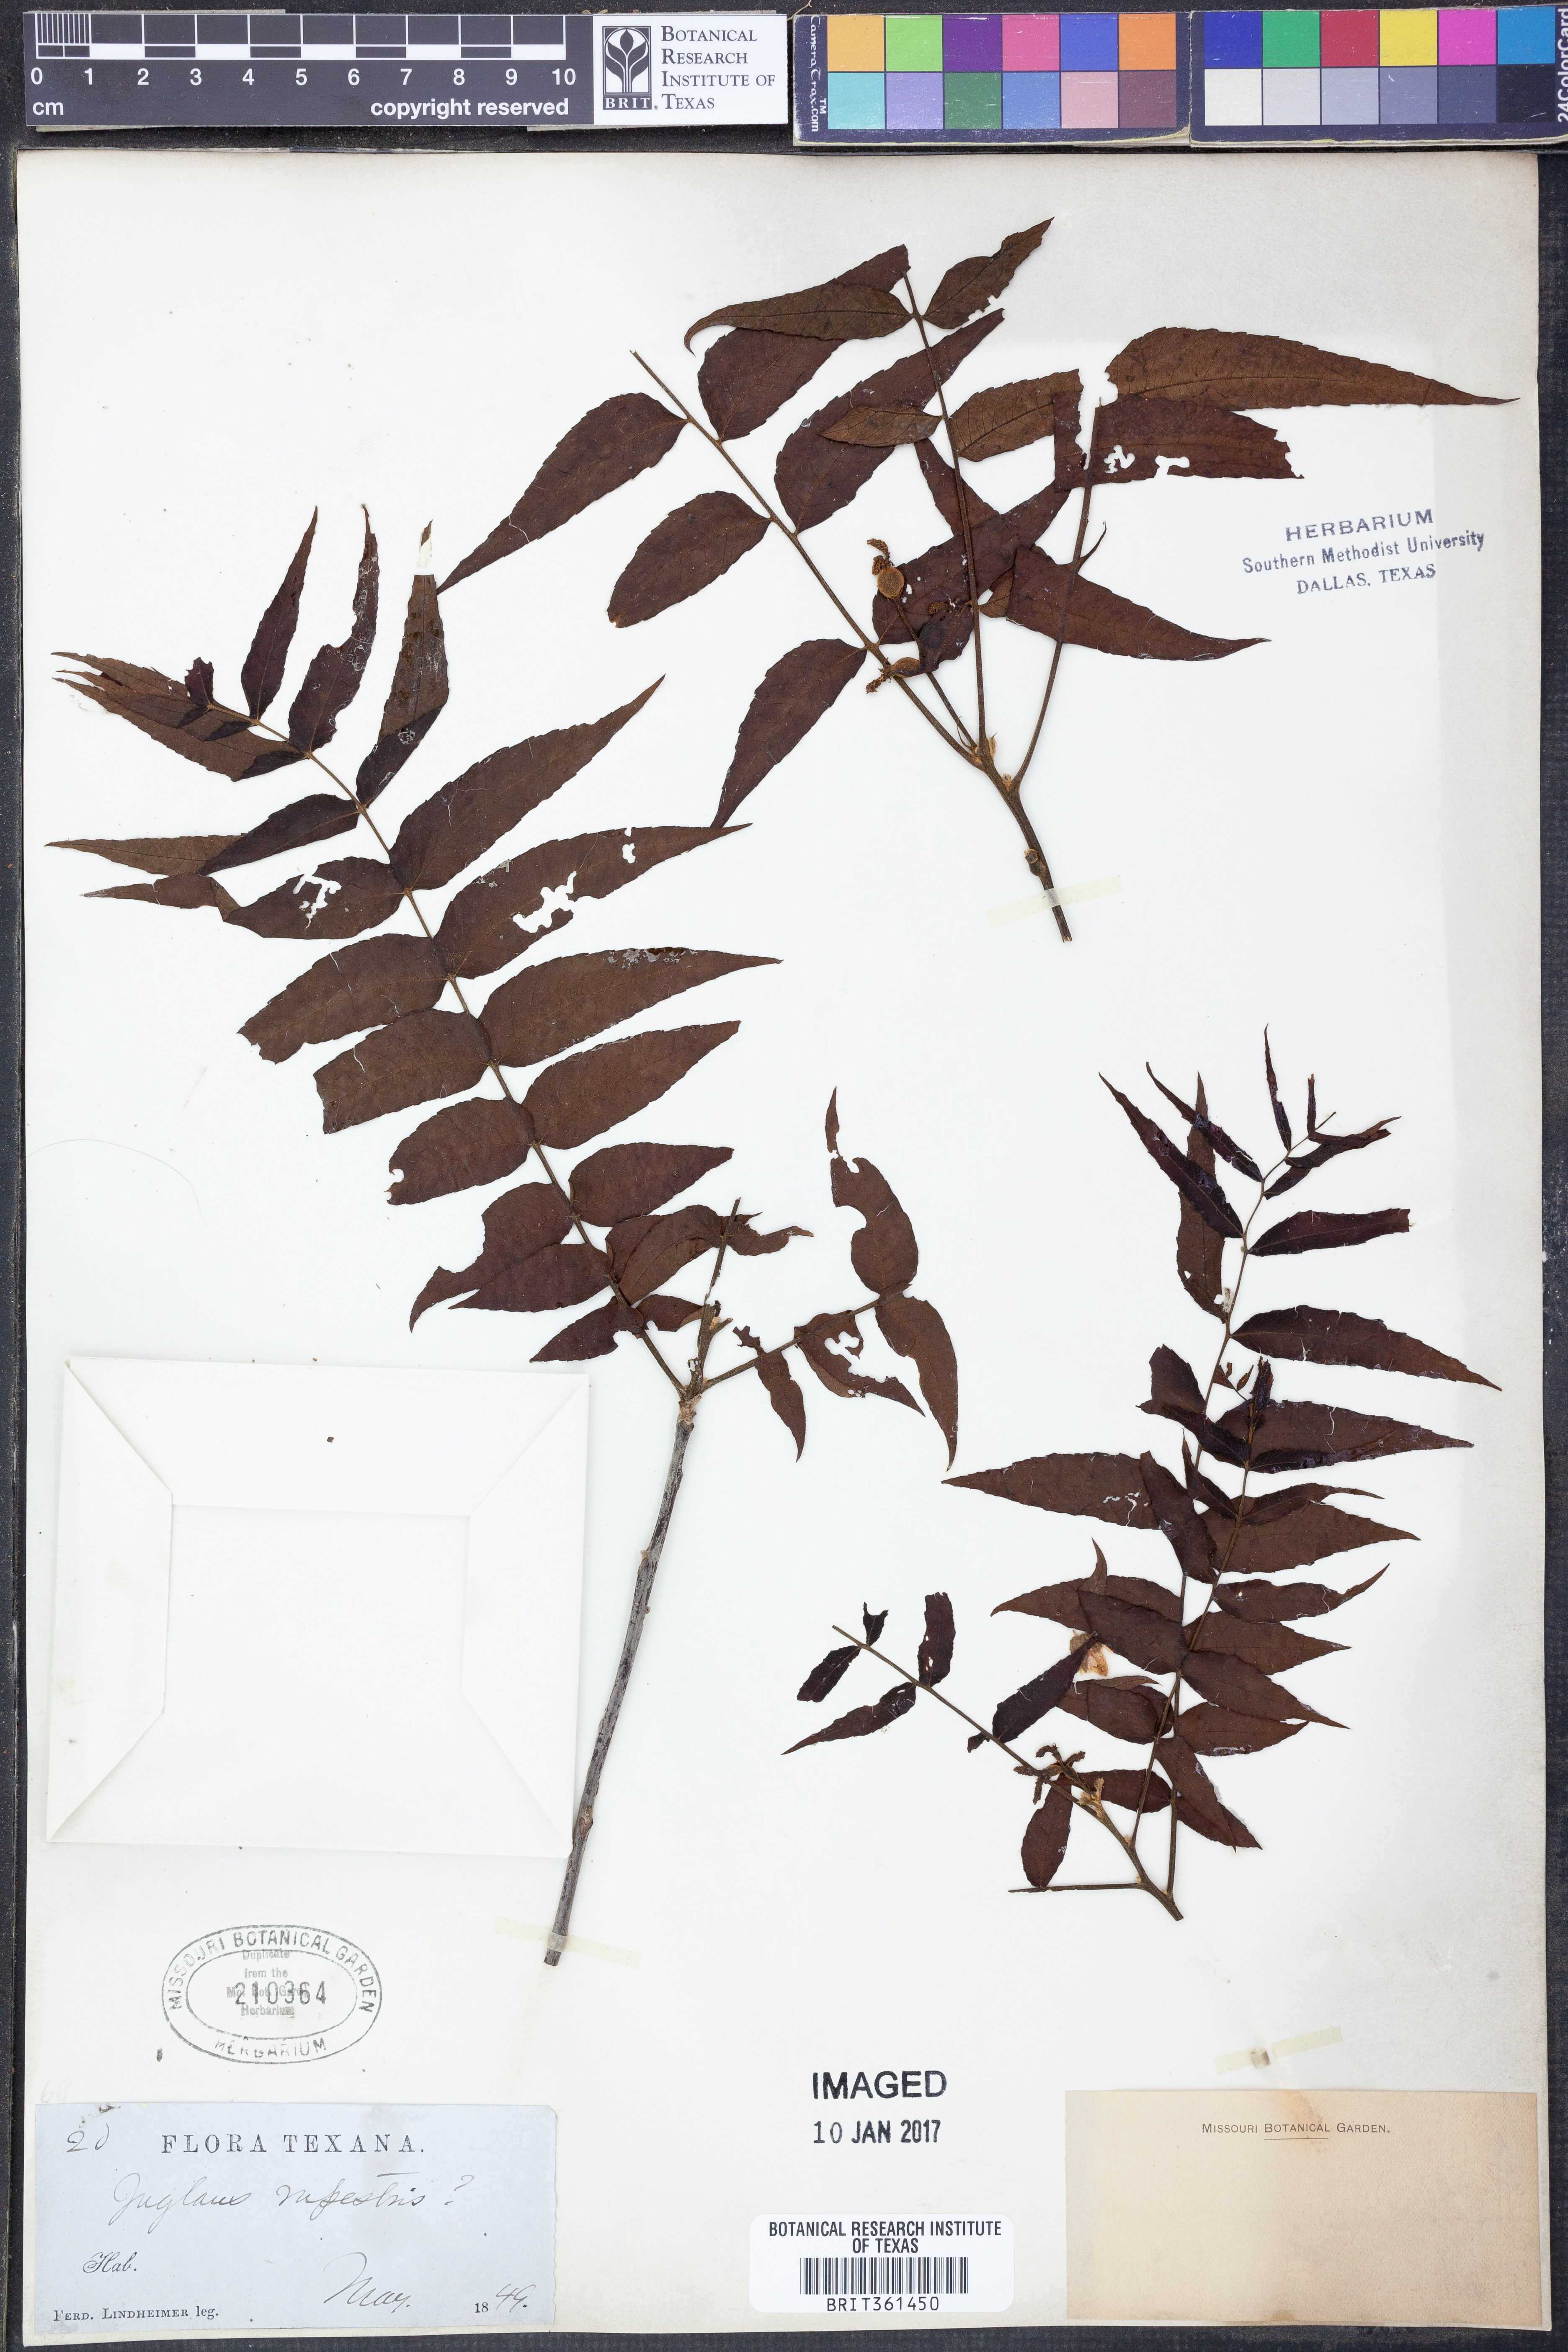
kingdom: Plantae
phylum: Tracheophyta
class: Magnoliopsida
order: Fagales
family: Juglandaceae
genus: Juglans
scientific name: Juglans microcarpa
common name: Texas walnut
